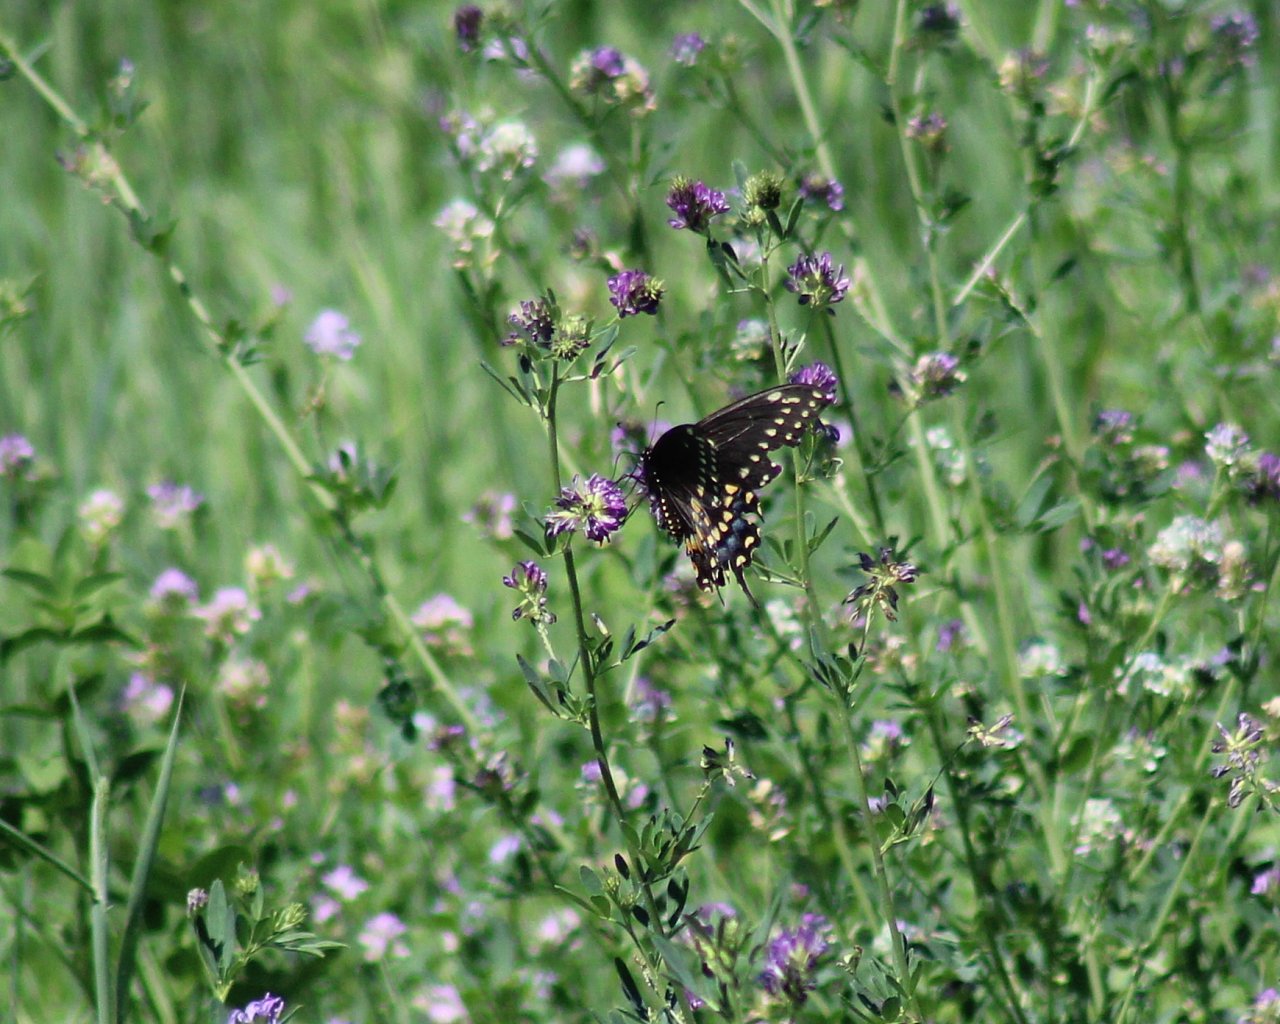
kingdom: Animalia
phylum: Arthropoda
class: Insecta
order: Lepidoptera
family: Papilionidae
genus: Papilio
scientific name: Papilio polyxenes
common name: Black Swallowtail
